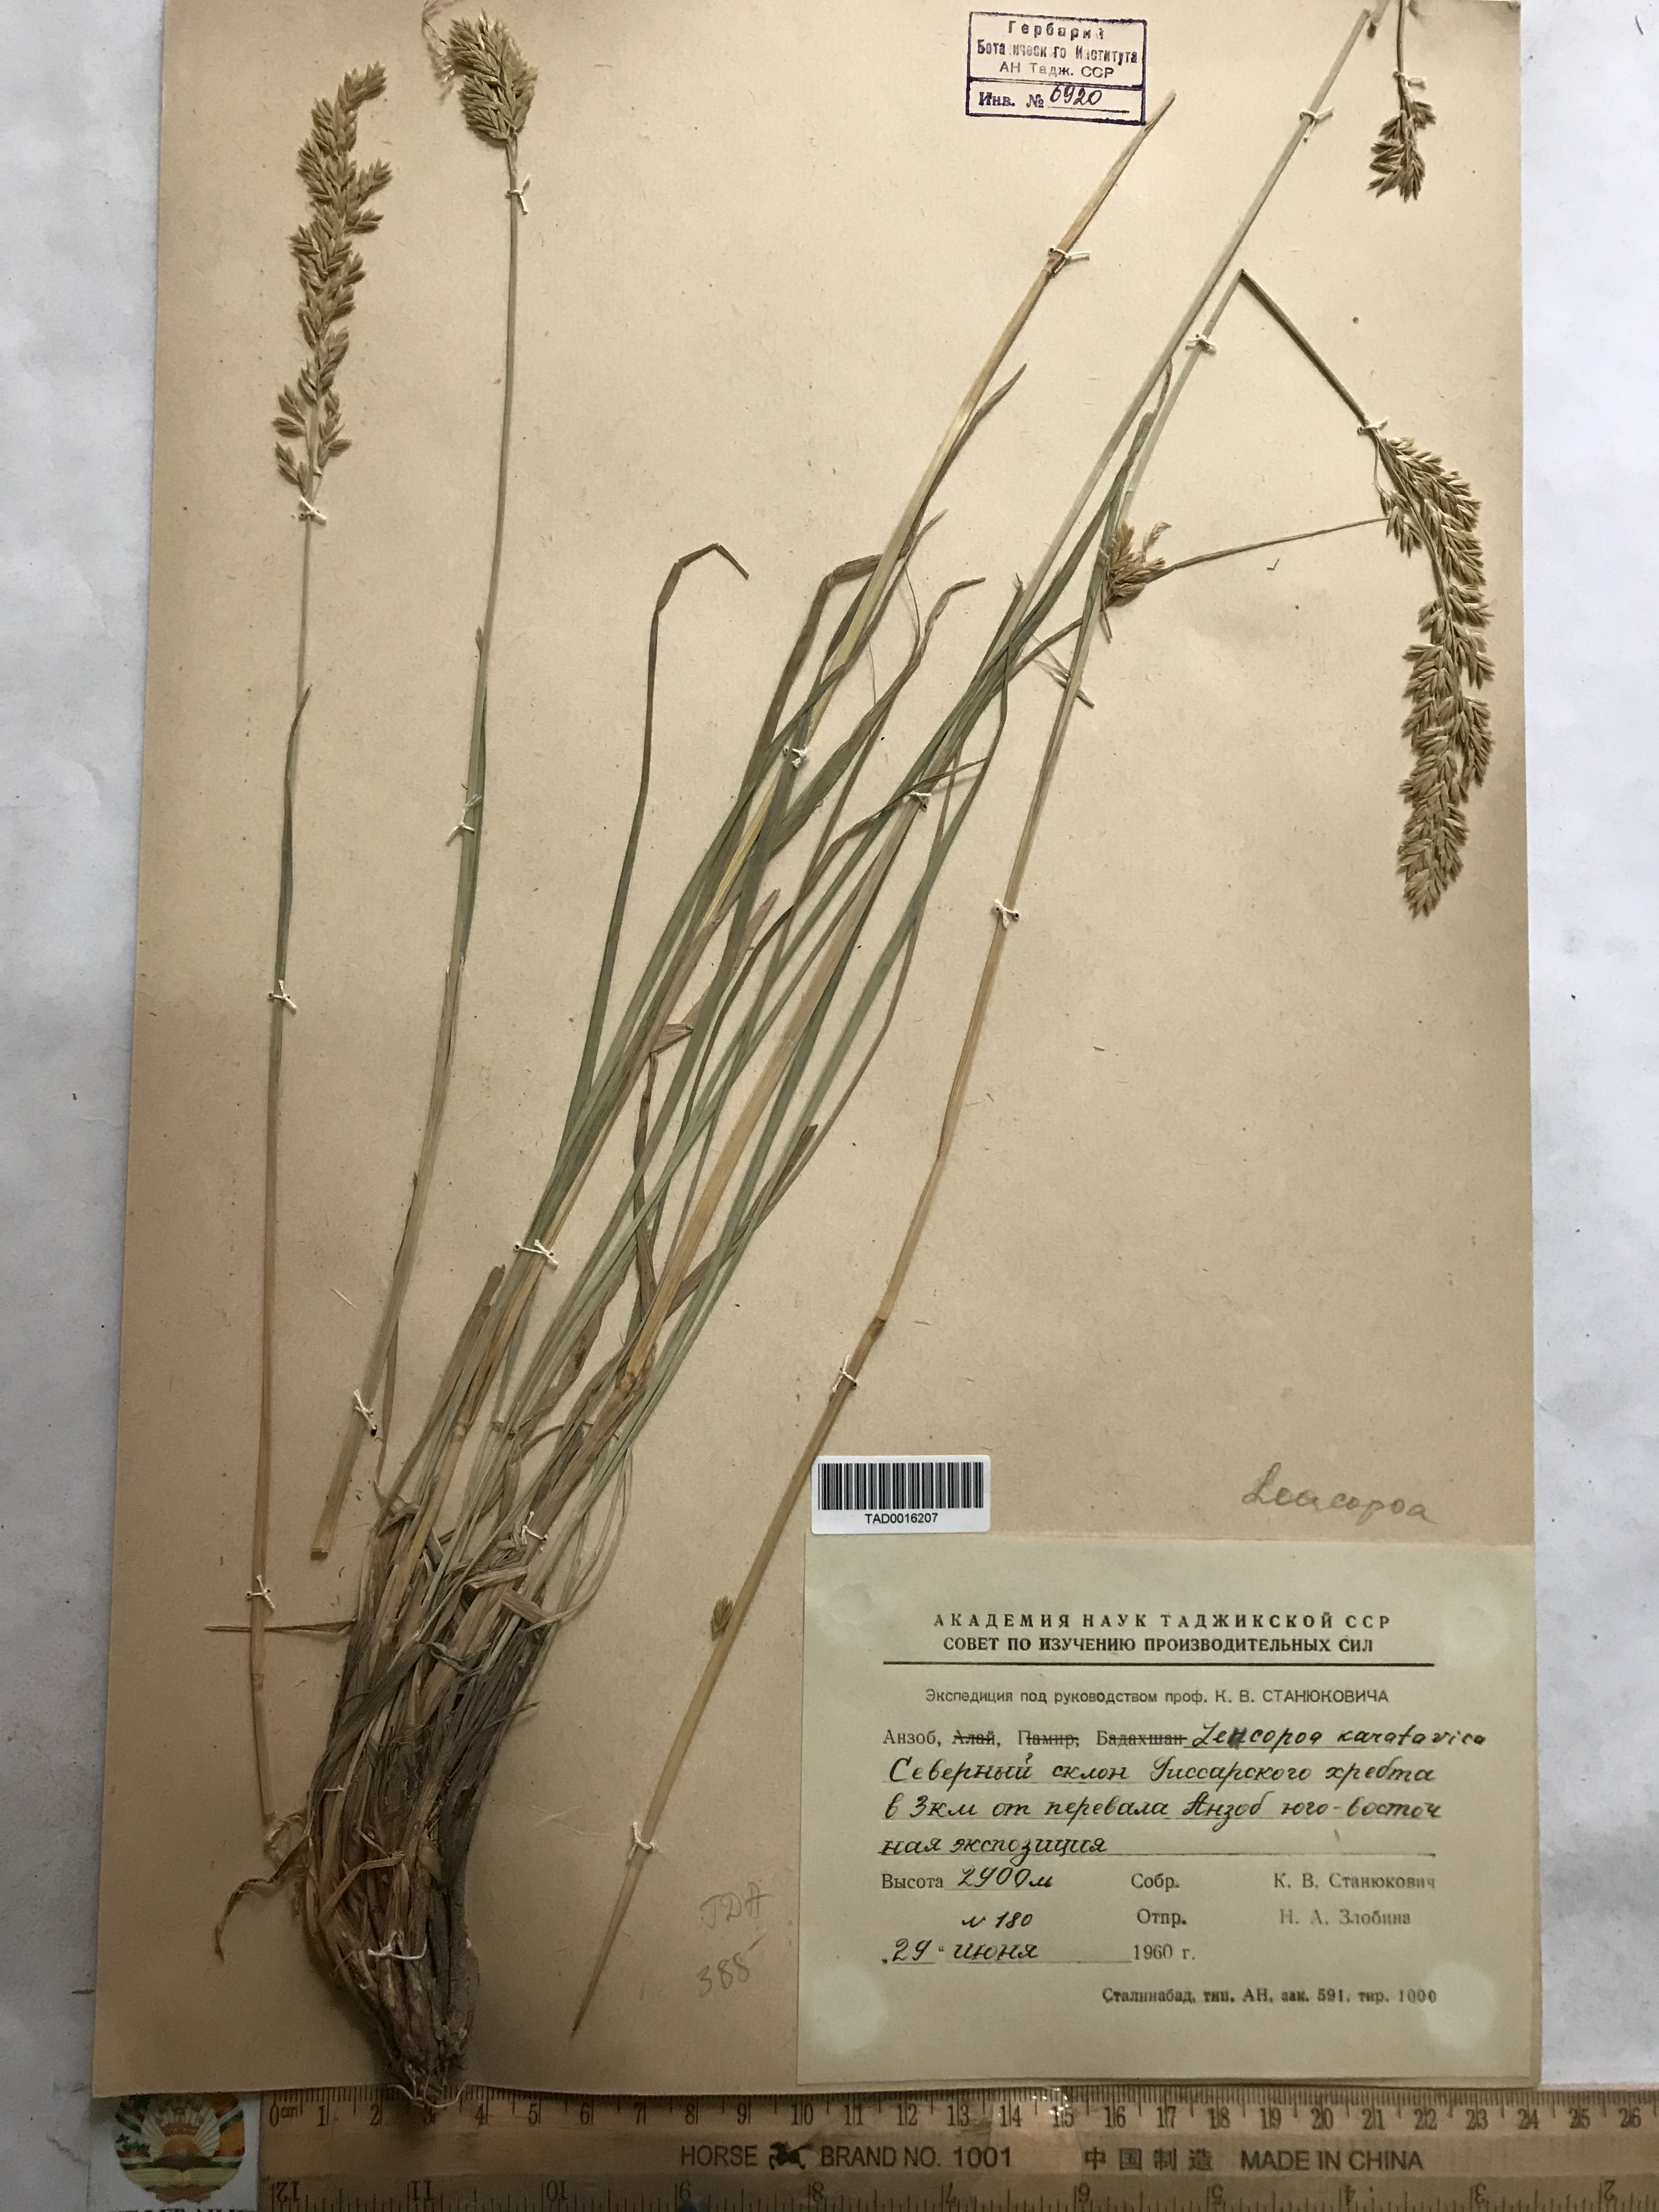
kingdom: Plantae
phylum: Tracheophyta
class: Liliopsida
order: Poales
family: Poaceae
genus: Festuca
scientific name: Festuca karatavica
